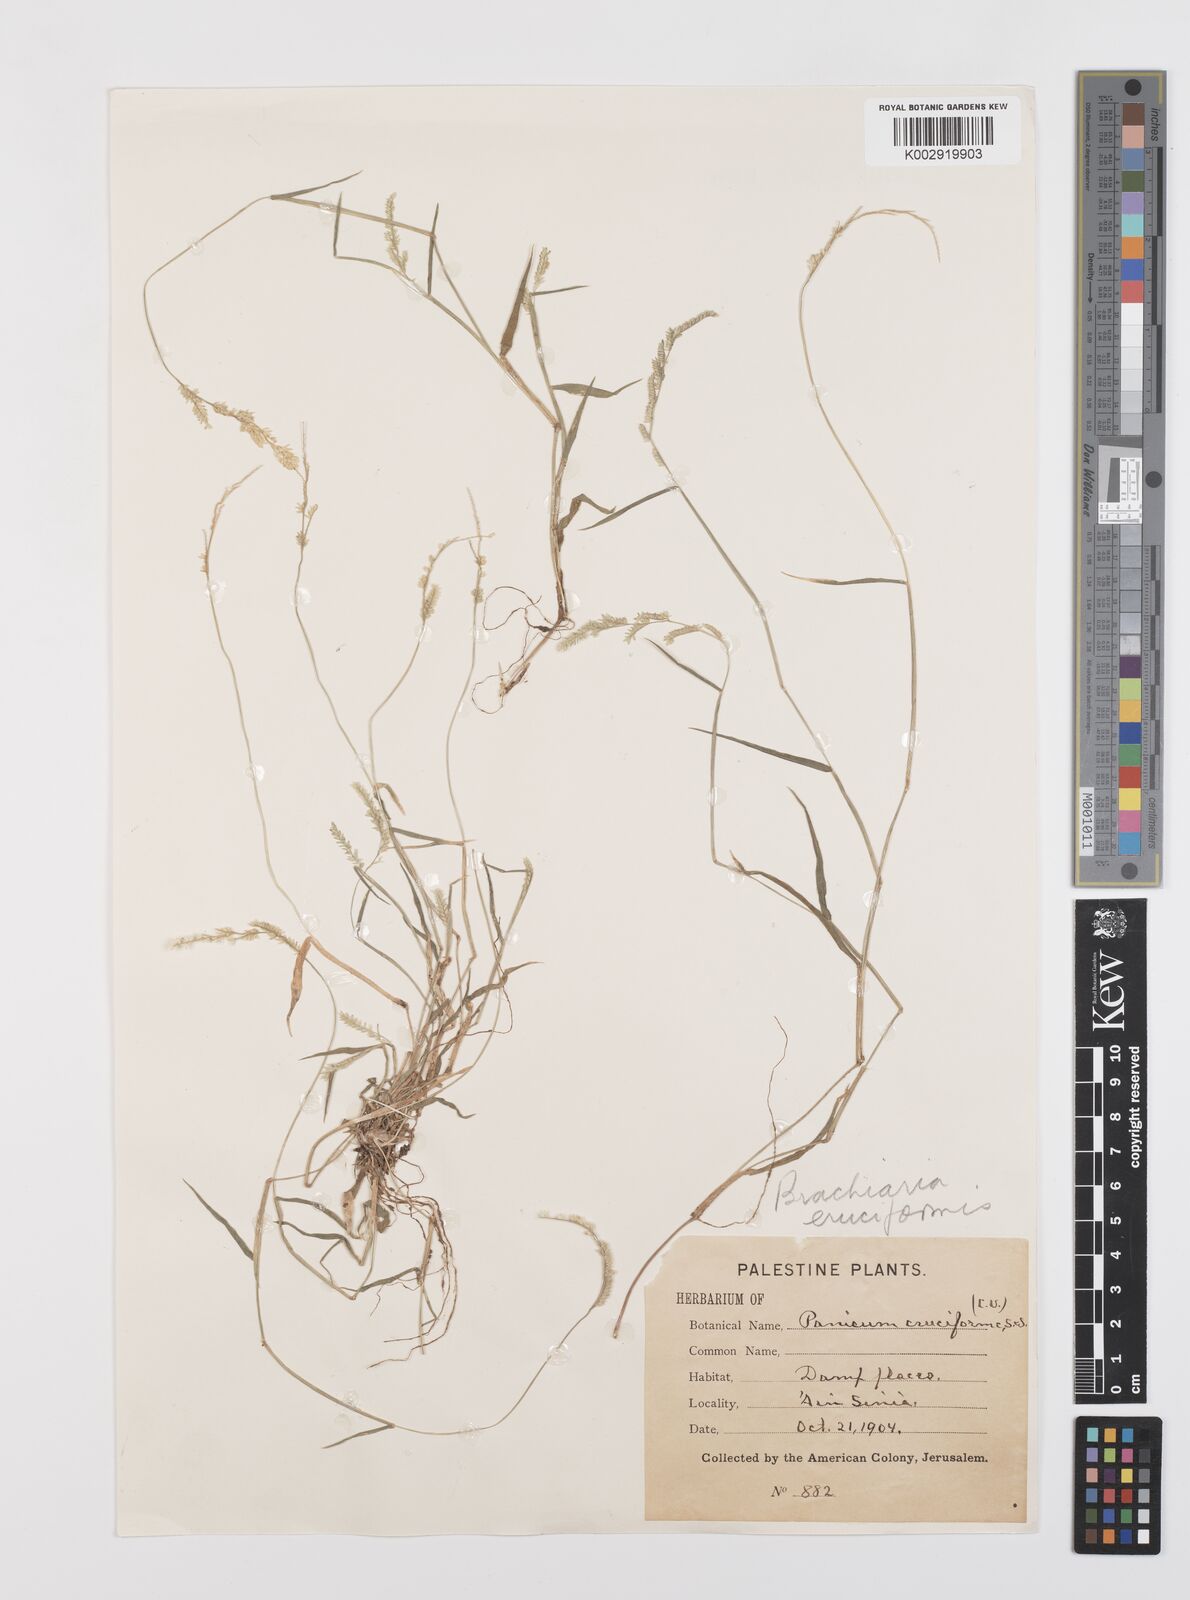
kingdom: Plantae
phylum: Tracheophyta
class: Liliopsida
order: Poales
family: Poaceae
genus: Moorochloa
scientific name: Moorochloa eruciformis
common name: Sweet signalgrass
